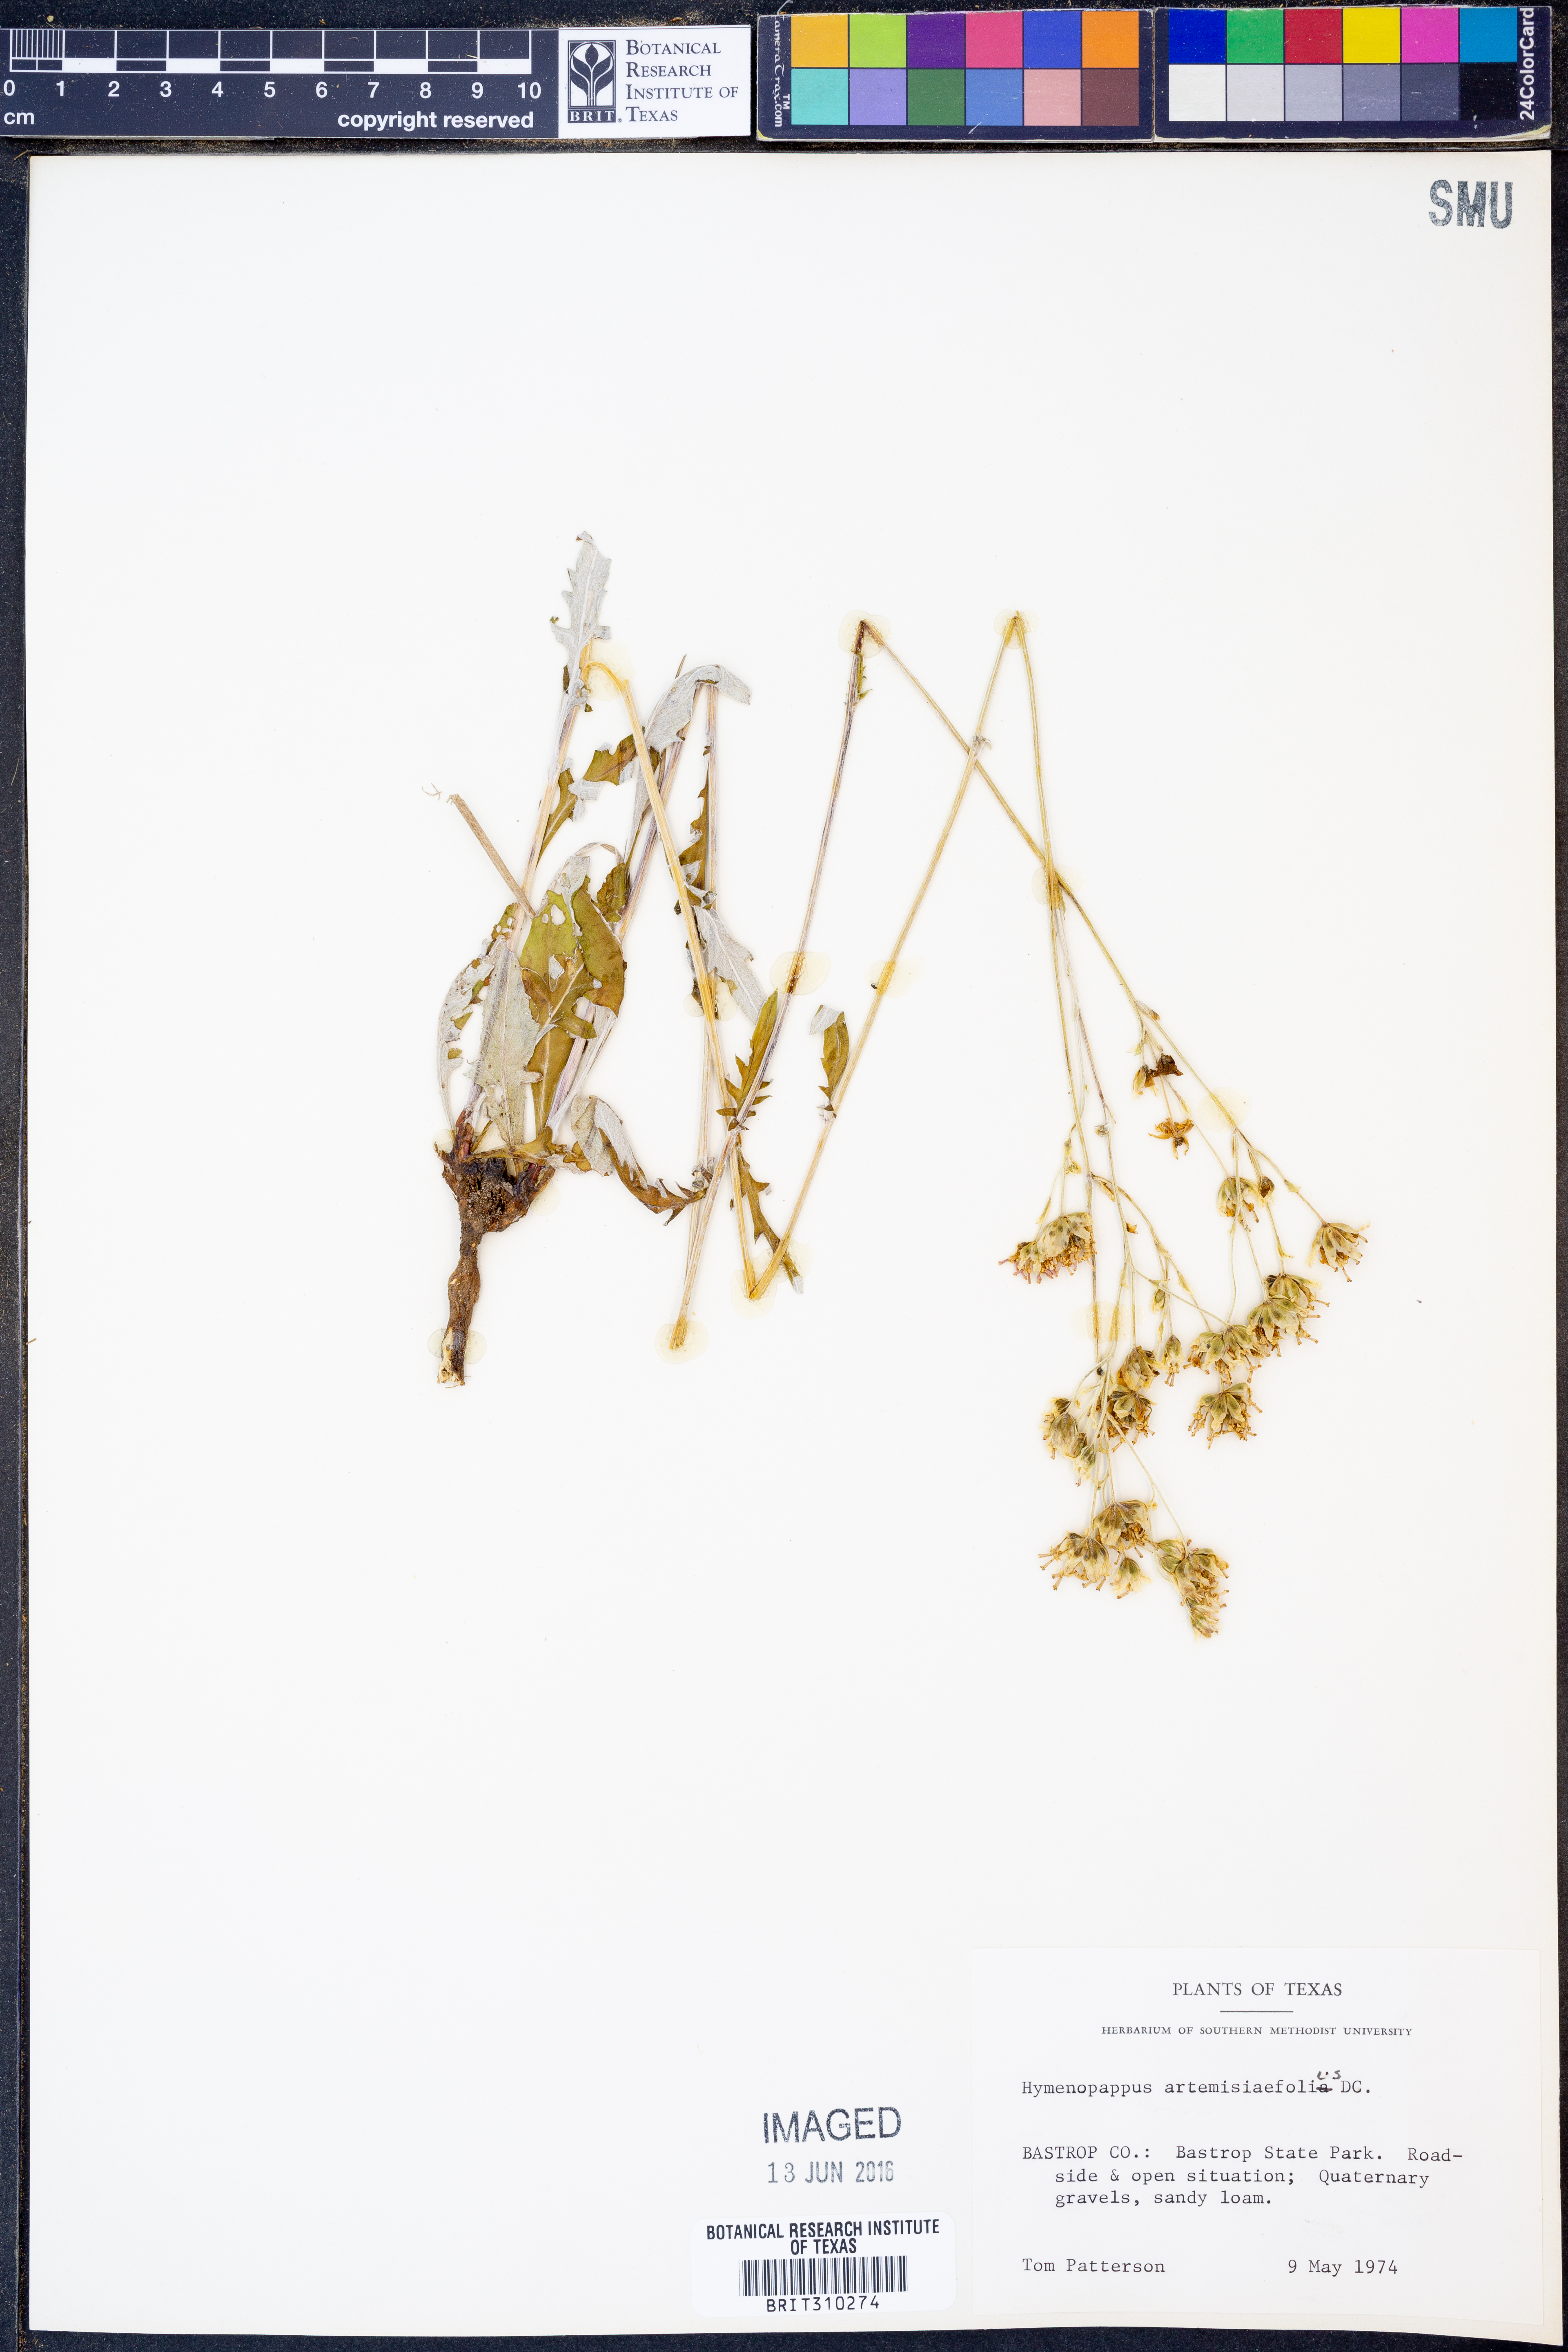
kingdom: Plantae
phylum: Tracheophyta
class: Magnoliopsida
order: Asterales
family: Asteraceae
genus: Hymenopappus
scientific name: Hymenopappus artemisiifolius
